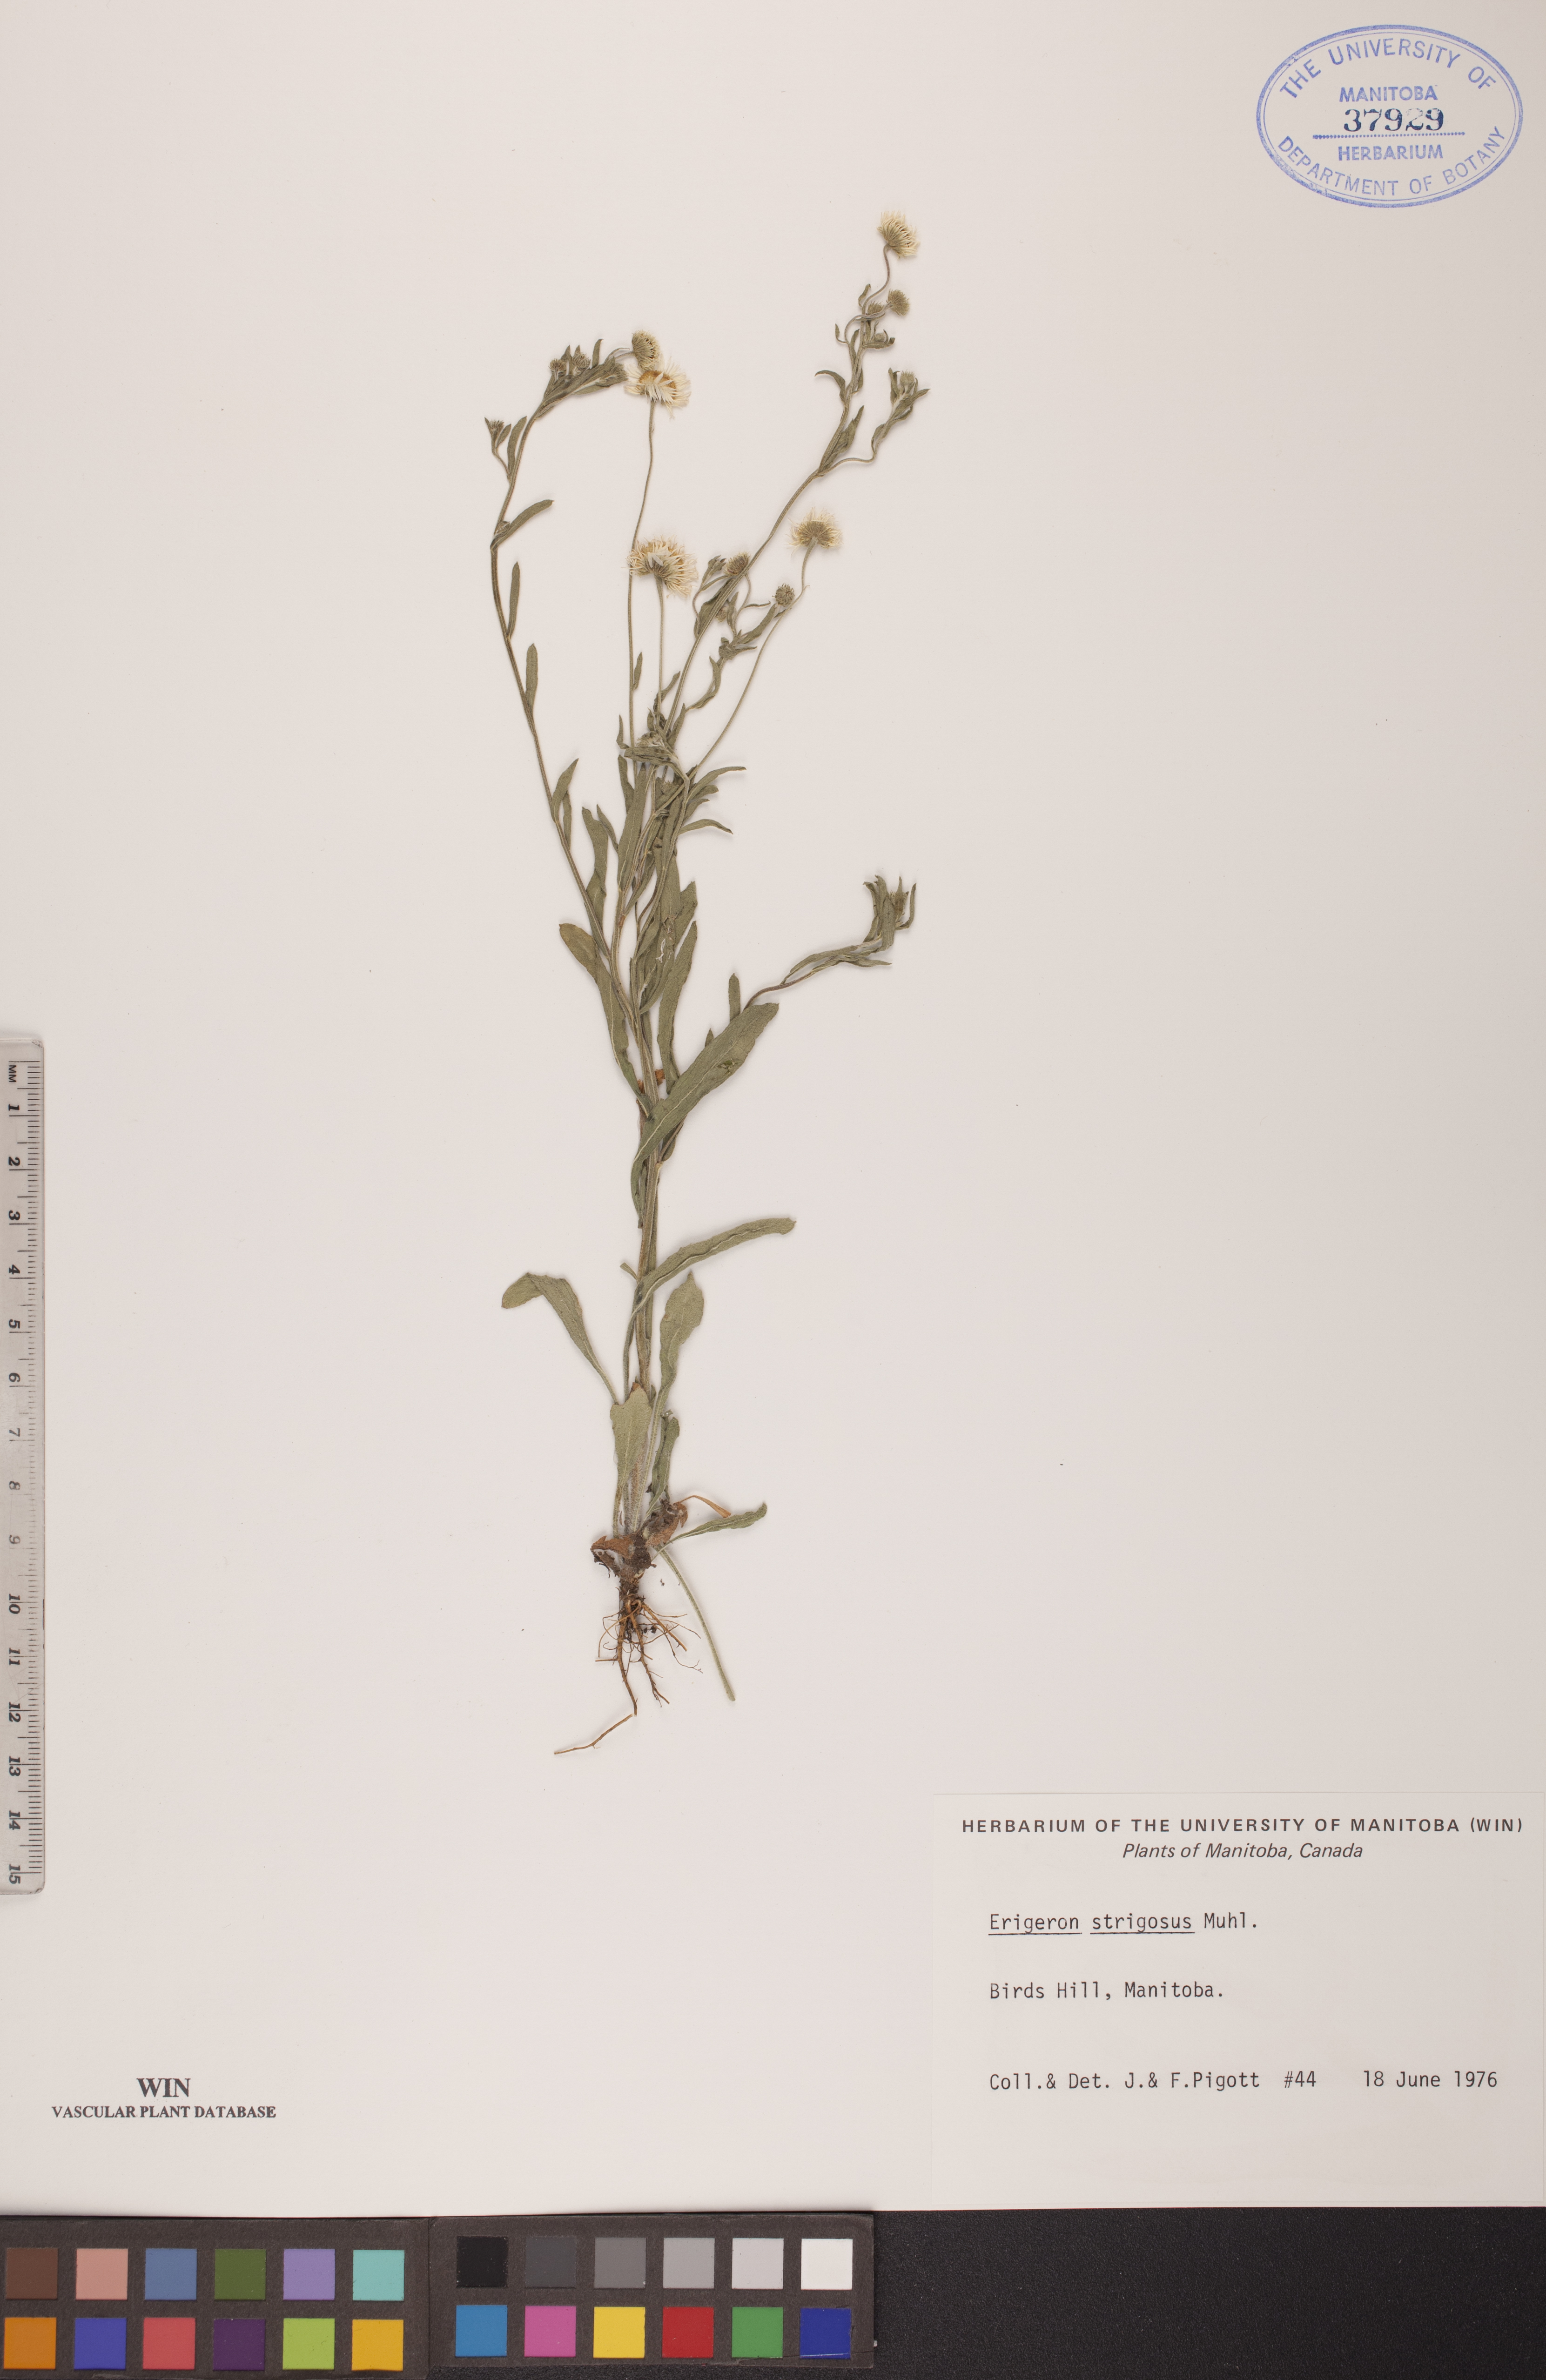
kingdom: Plantae
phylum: Tracheophyta
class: Magnoliopsida
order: Asterales
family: Asteraceae
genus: Erigeron
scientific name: Erigeron strigosus
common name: Common eastern fleabane
